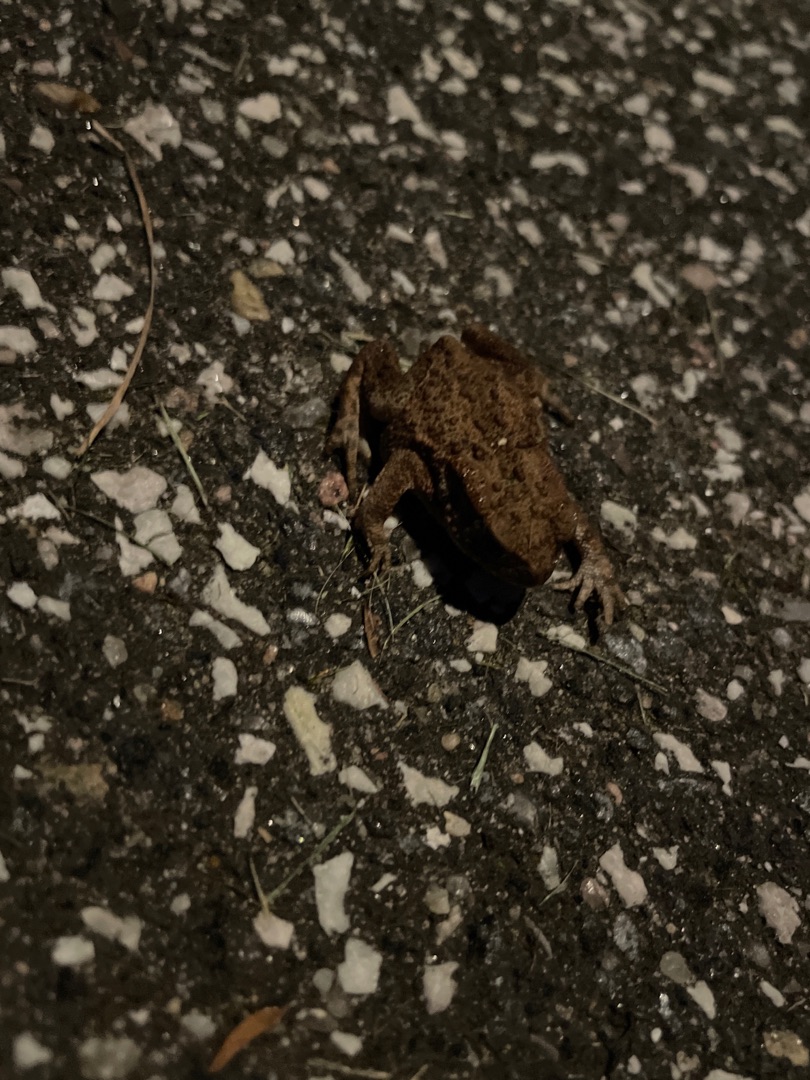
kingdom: Animalia
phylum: Chordata
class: Amphibia
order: Anura
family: Bufonidae
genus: Bufo
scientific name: Bufo bufo
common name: Skrubtudse
